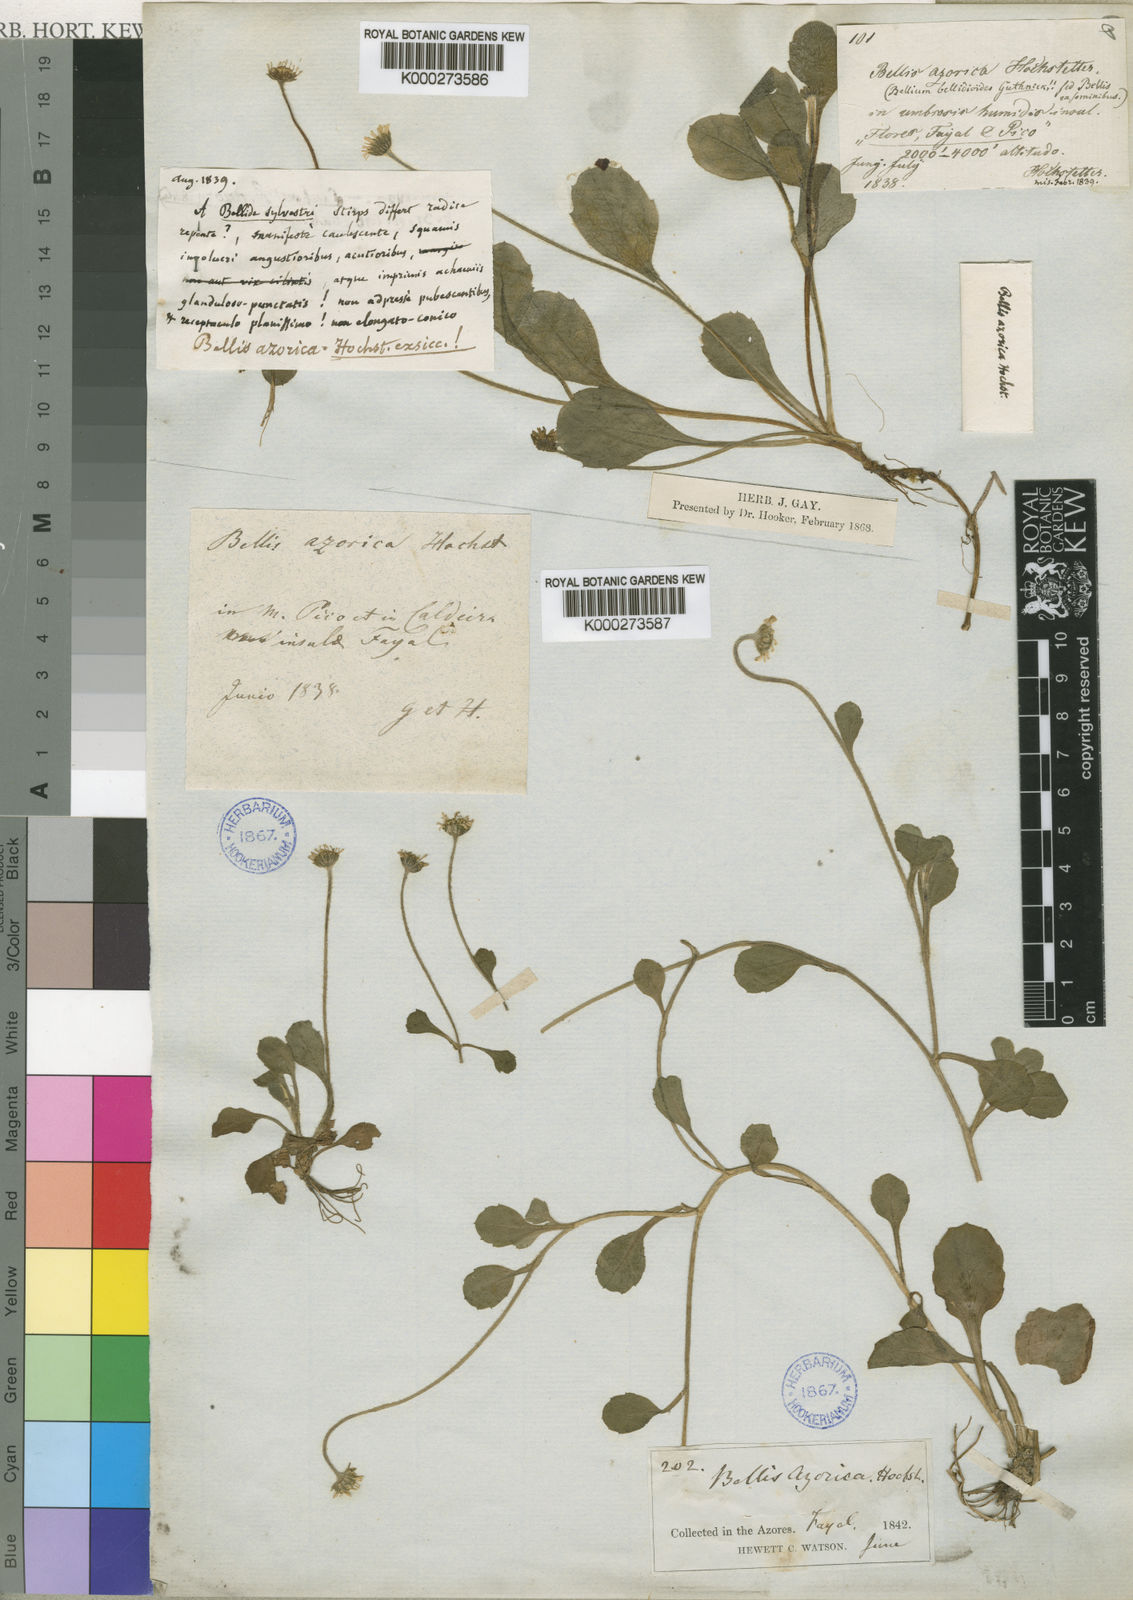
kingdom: Plantae
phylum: Tracheophyta
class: Magnoliopsida
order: Asterales
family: Asteraceae
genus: Bellis
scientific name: Bellis azorica
